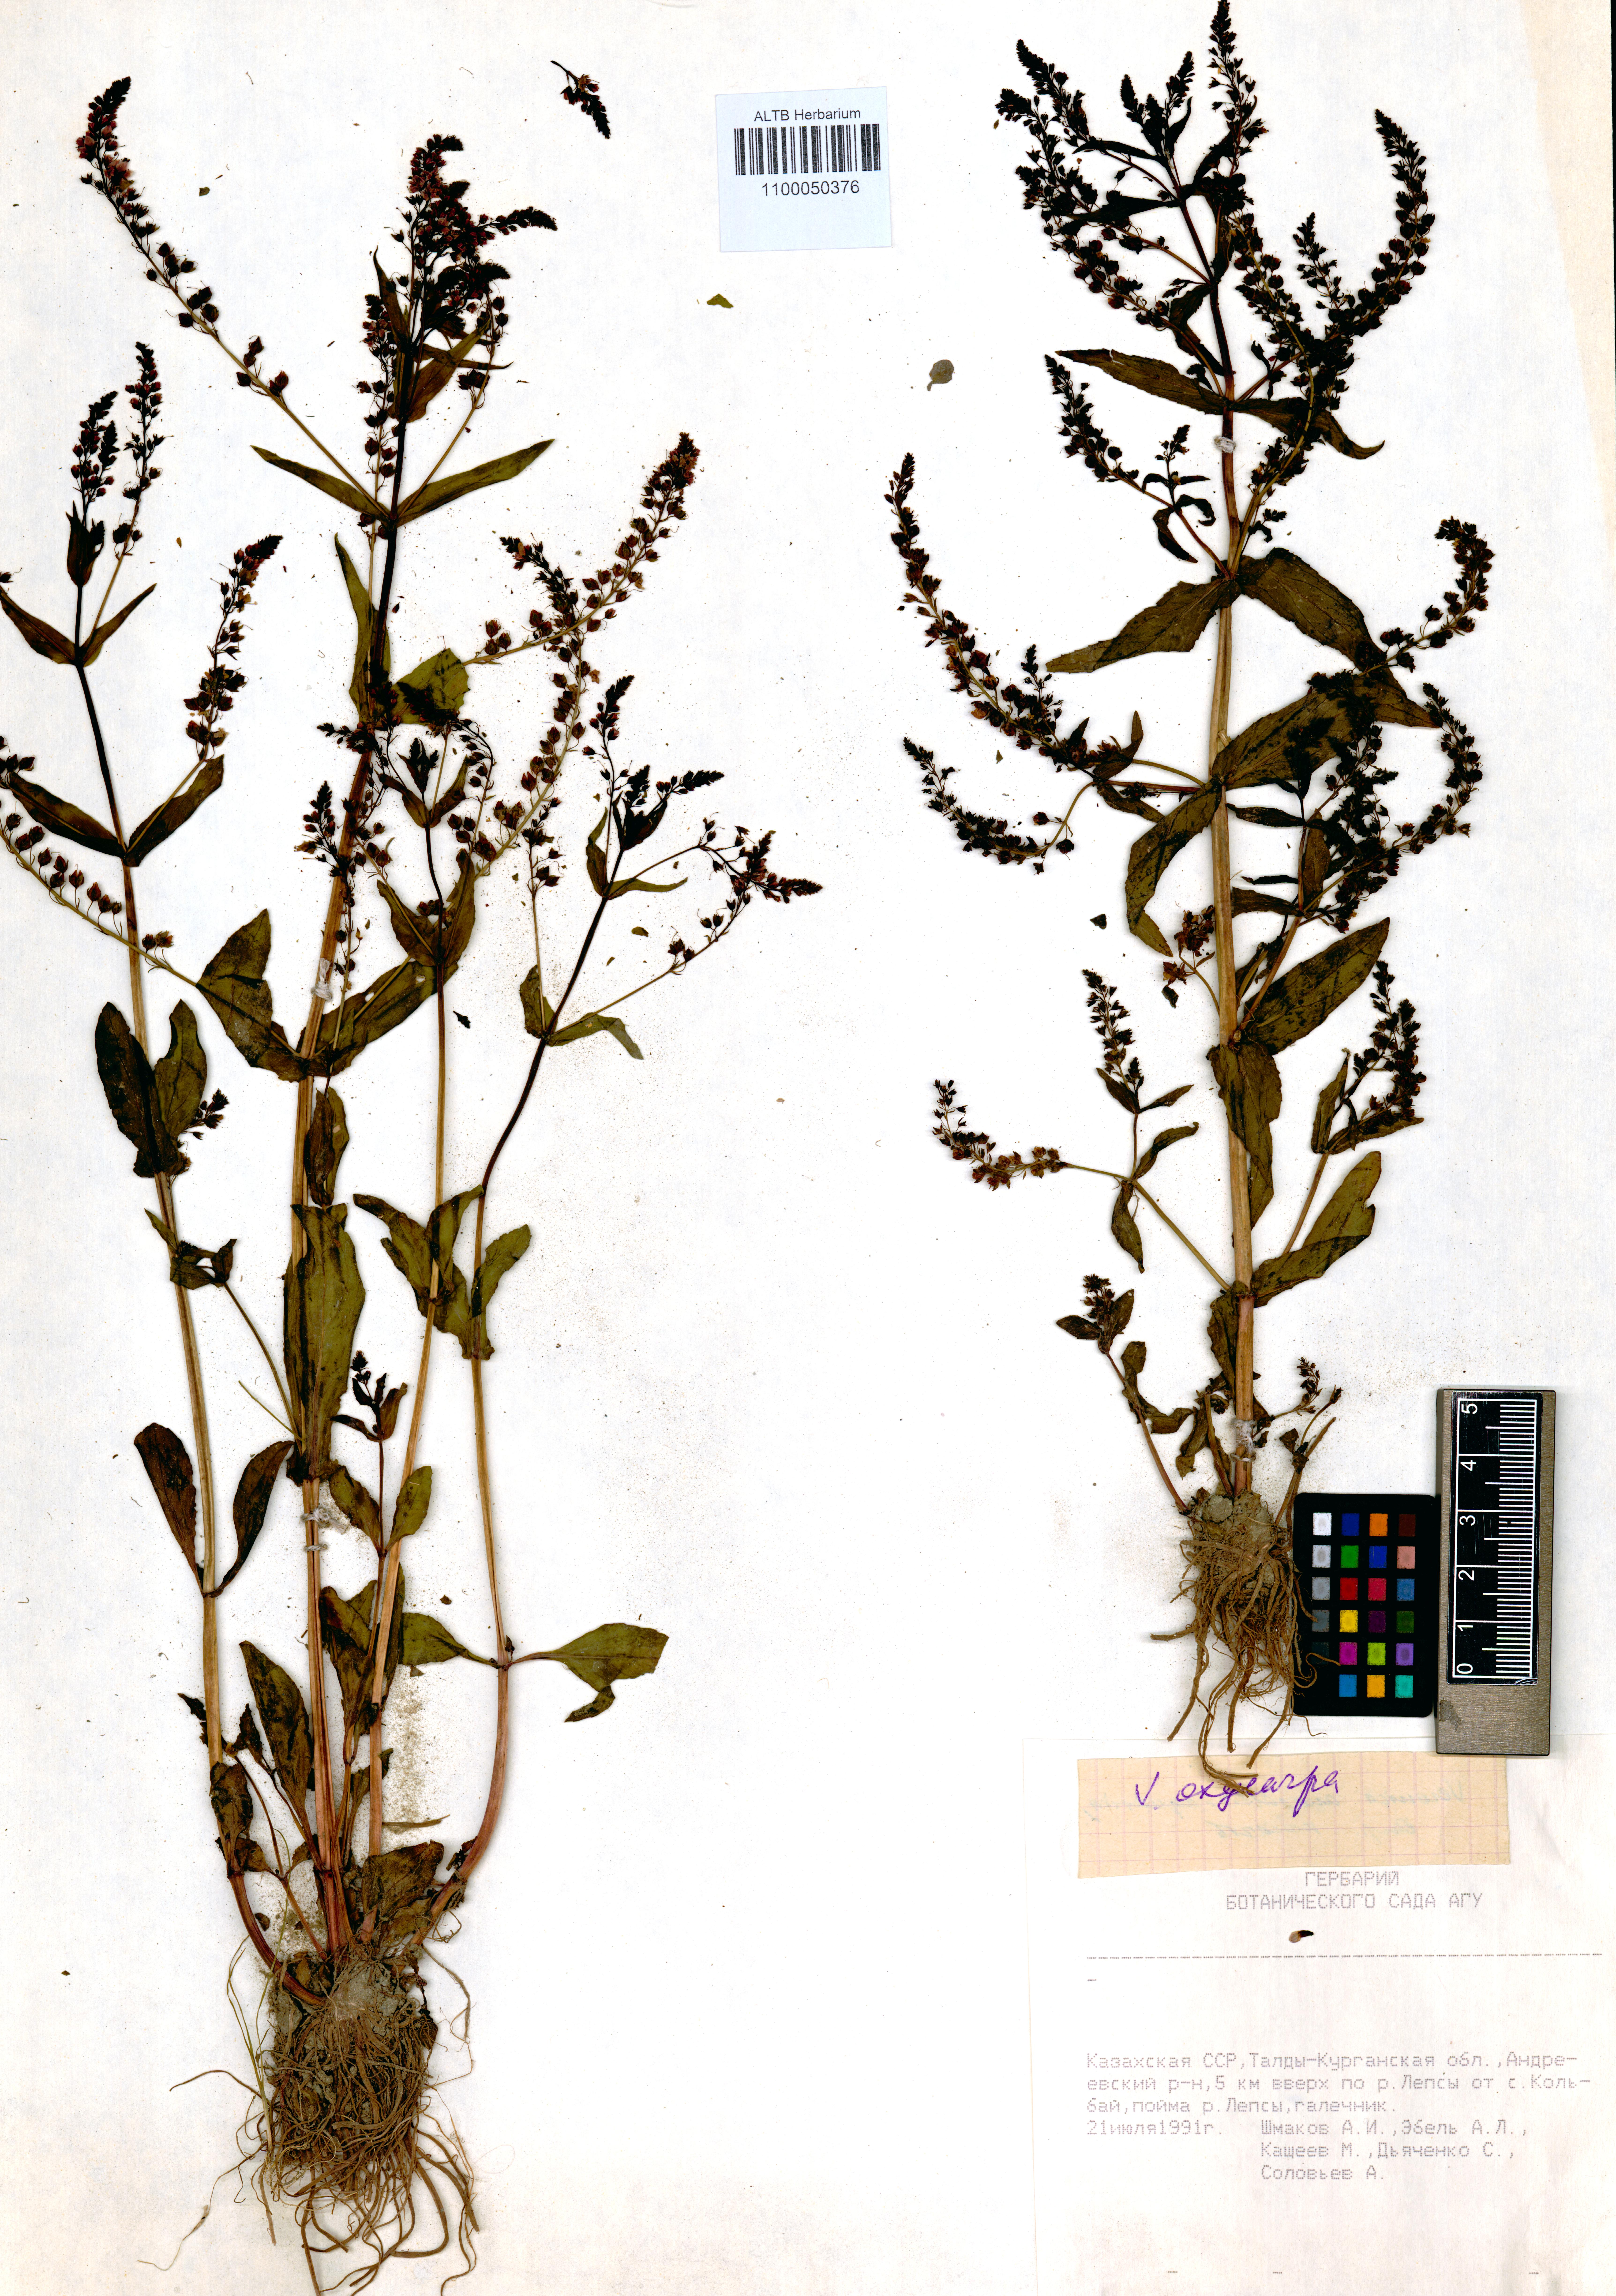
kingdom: Plantae
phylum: Tracheophyta
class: Magnoliopsida
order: Lamiales
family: Plantaginaceae
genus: Veronica
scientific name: Veronica oxycarpa
